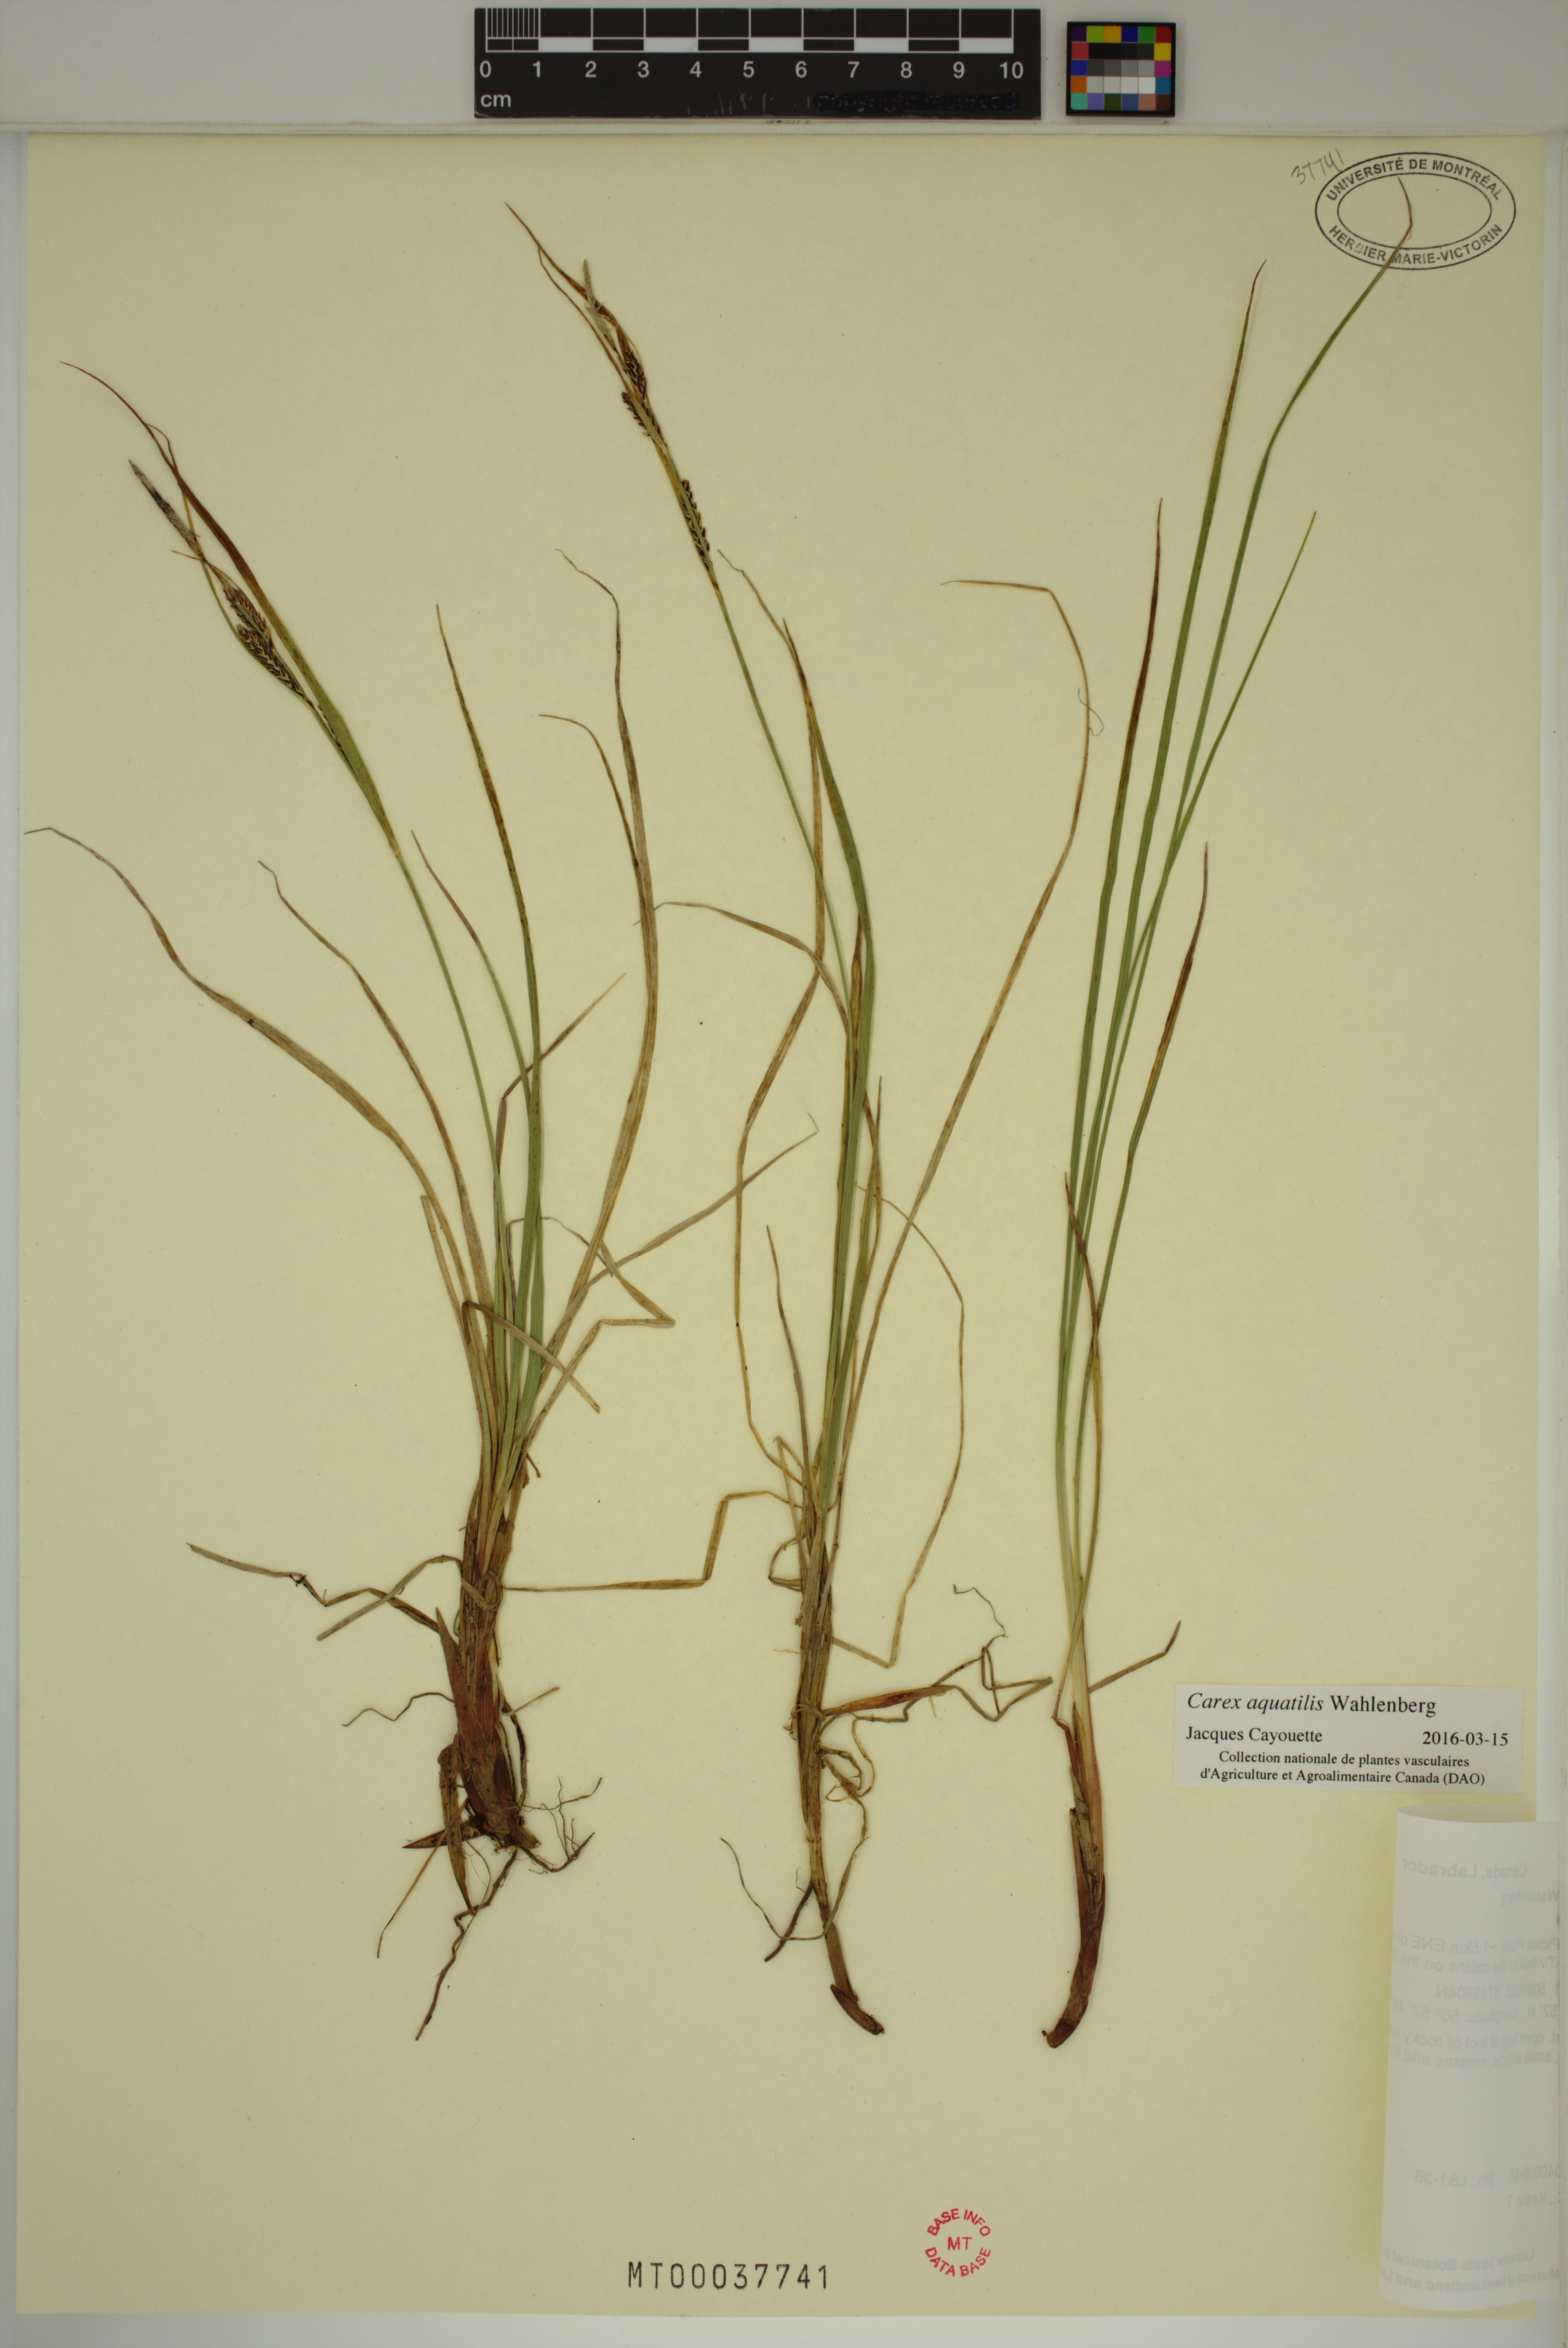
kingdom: Plantae
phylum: Tracheophyta
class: Liliopsida
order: Poales
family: Cyperaceae
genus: Carex
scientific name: Carex aquatilis
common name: Water sedge
